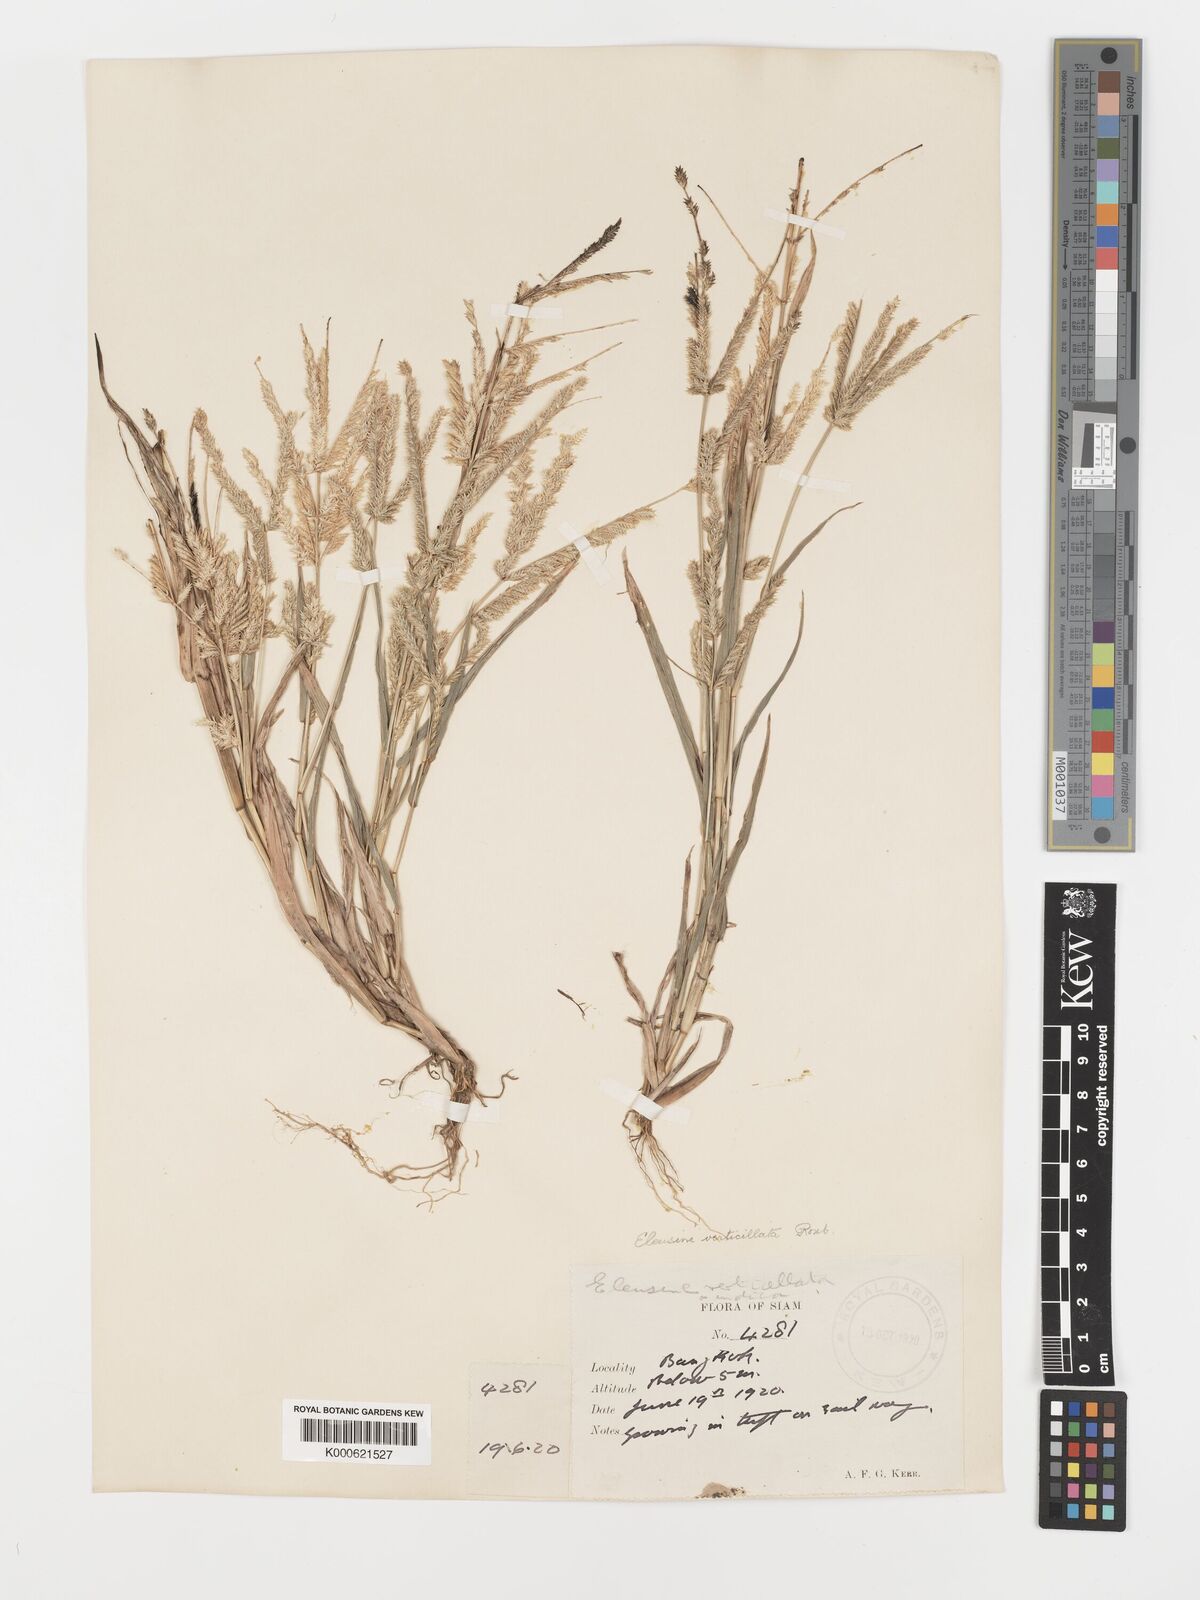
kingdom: Plantae
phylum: Tracheophyta
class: Liliopsida
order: Poales
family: Poaceae
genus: Acrachne
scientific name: Acrachne racemosa
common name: Goosegrass
